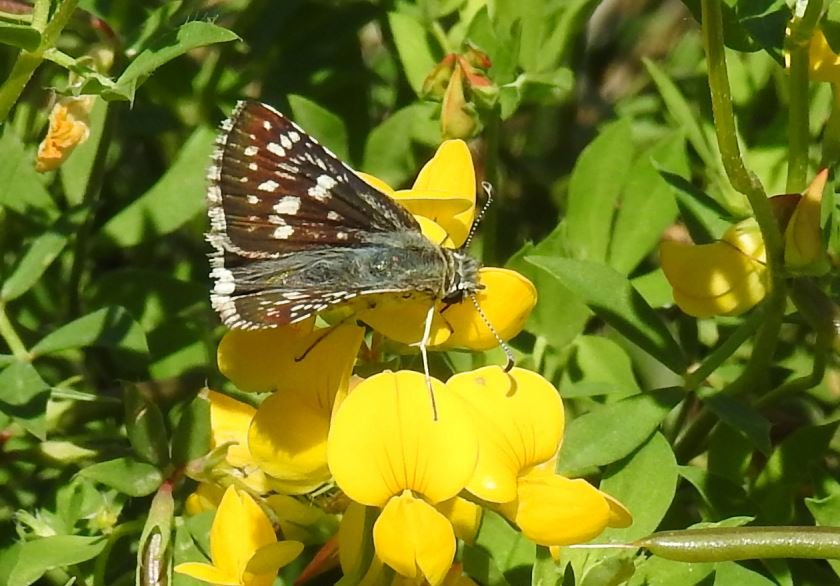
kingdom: Animalia
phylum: Arthropoda
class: Insecta
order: Lepidoptera
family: Hesperiidae
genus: Pyrgus
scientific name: Pyrgus communis
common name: Common Checkered-Skipper
